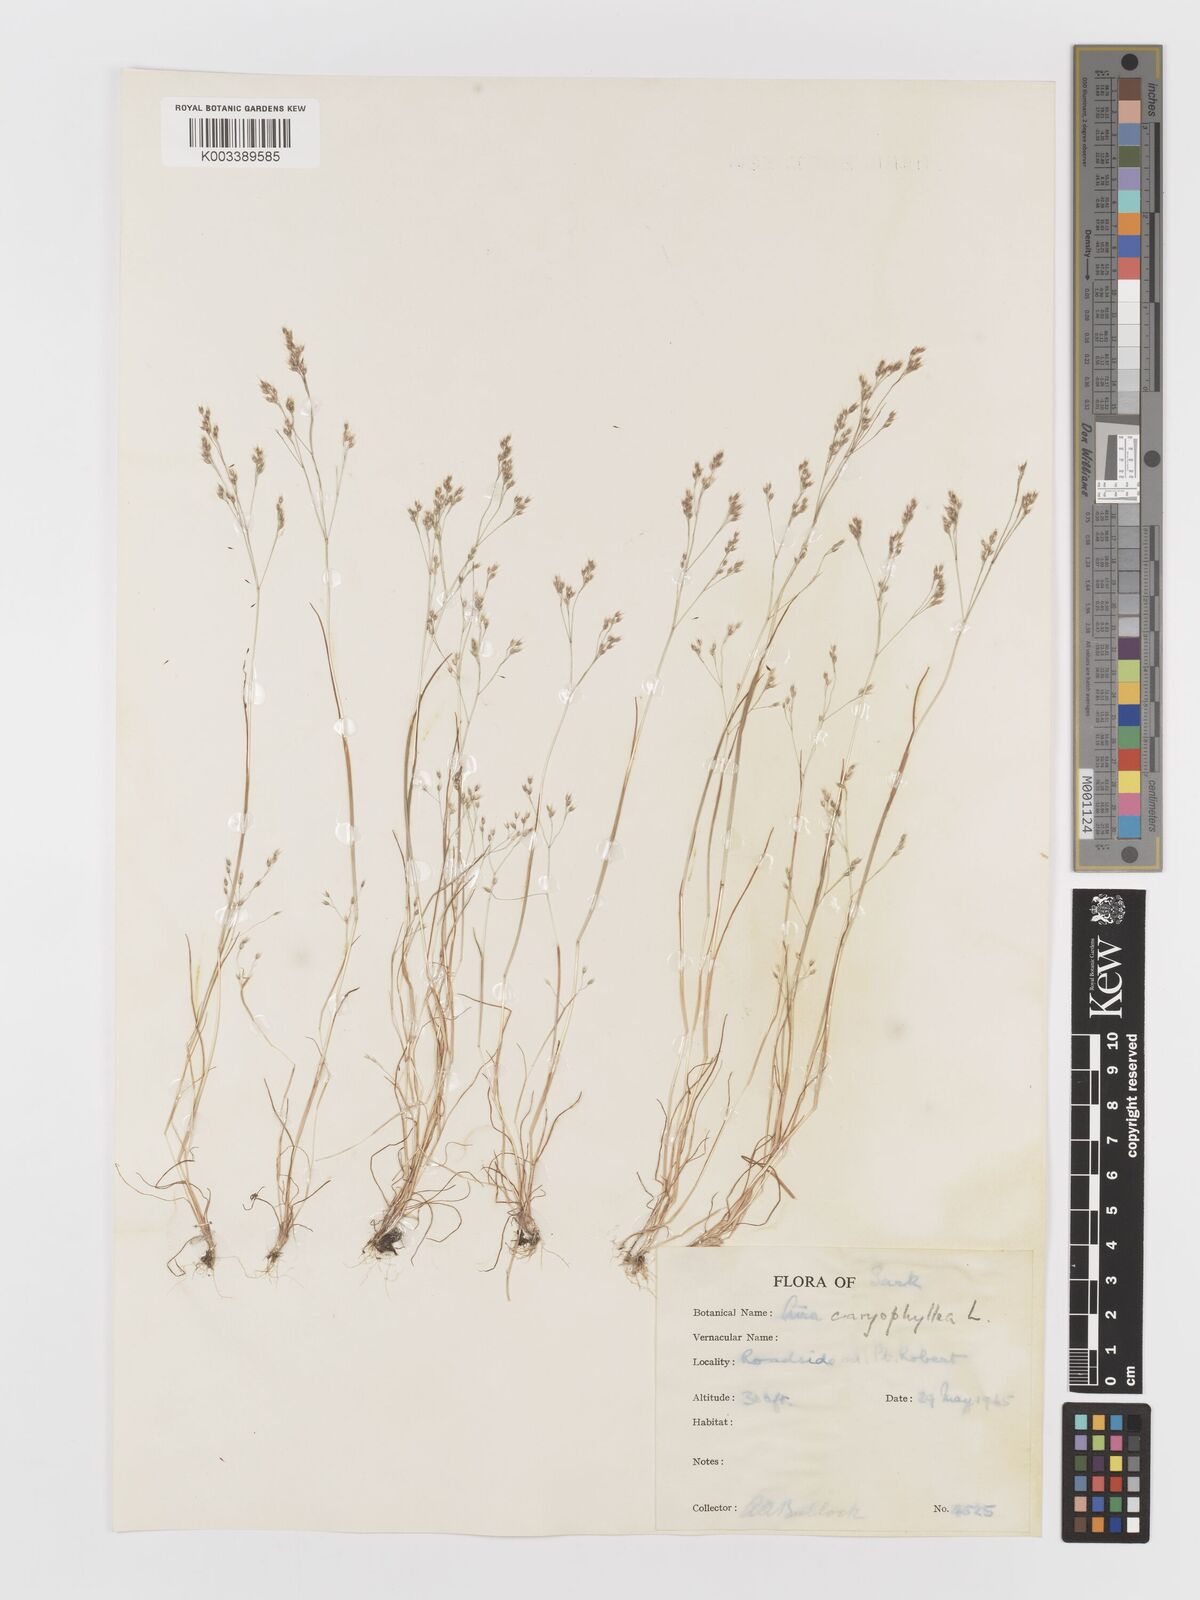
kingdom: Plantae
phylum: Tracheophyta
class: Liliopsida
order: Poales
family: Poaceae
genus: Aira
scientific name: Aira caryophyllea
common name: Silver hairgrass
